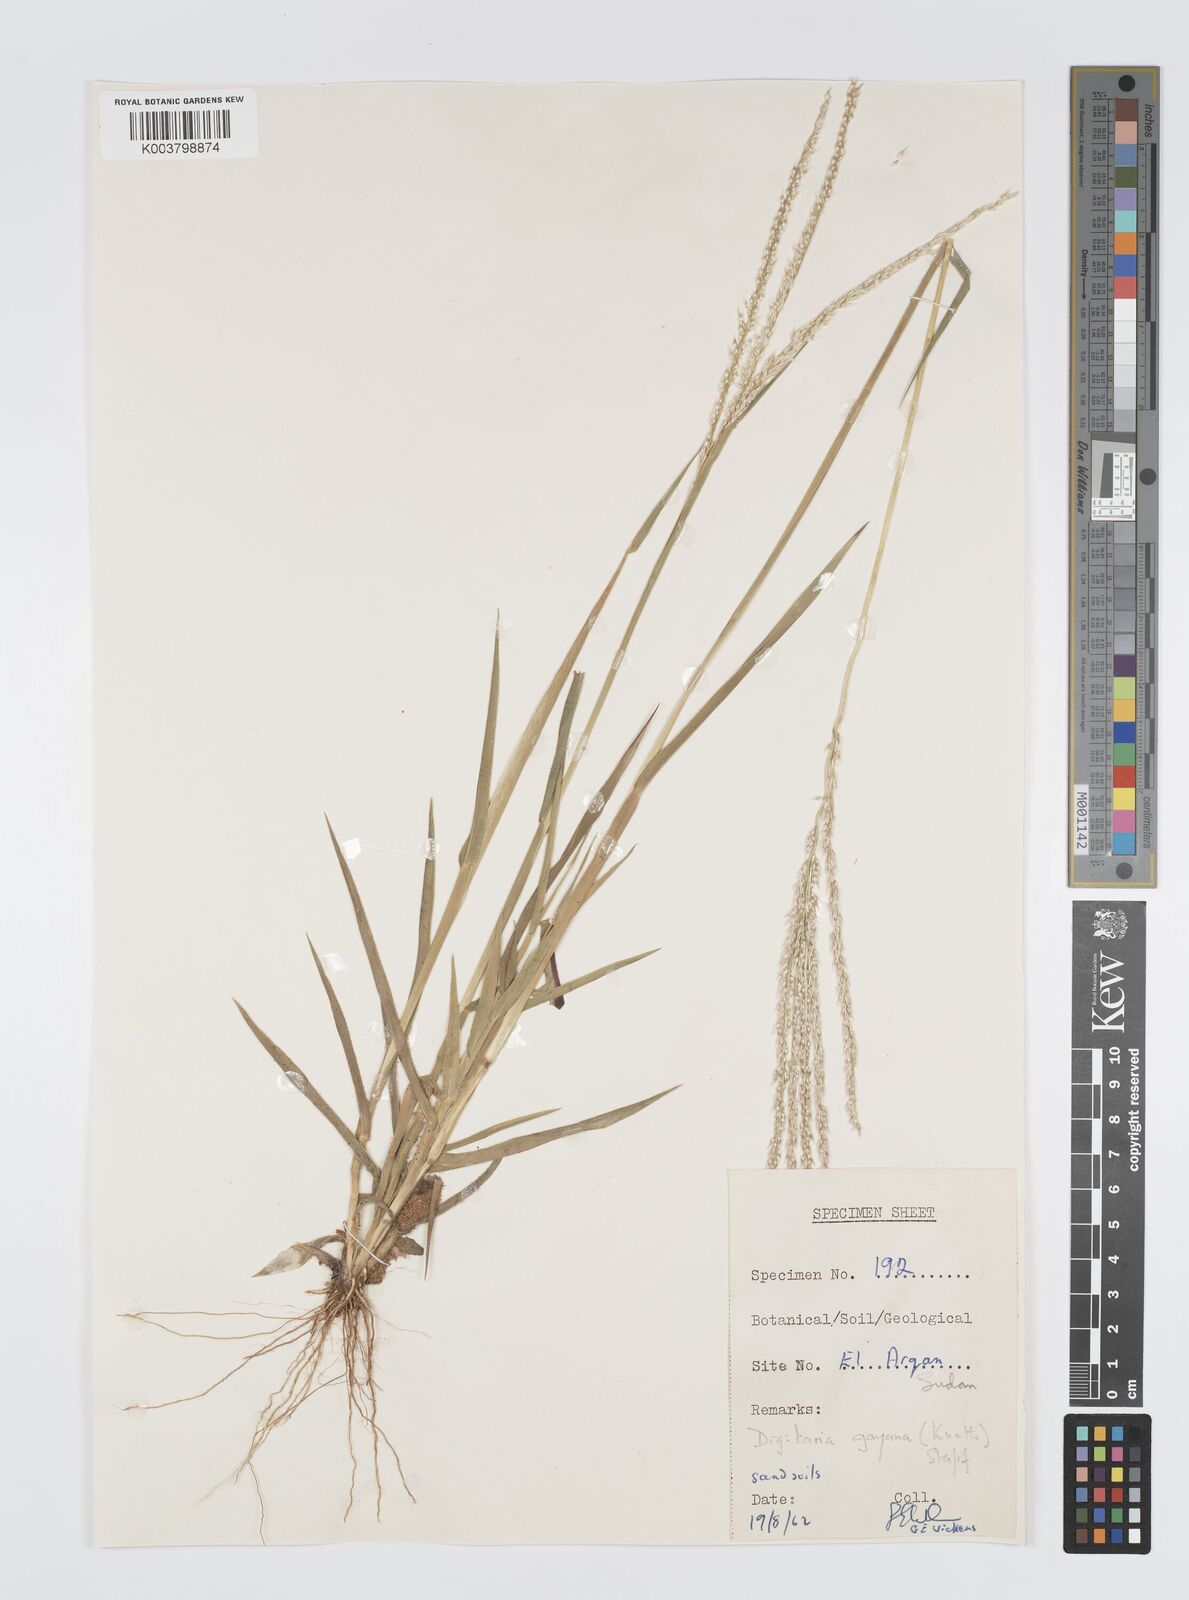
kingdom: Plantae
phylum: Tracheophyta
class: Liliopsida
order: Poales
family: Poaceae
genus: Digitaria
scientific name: Digitaria gayana
